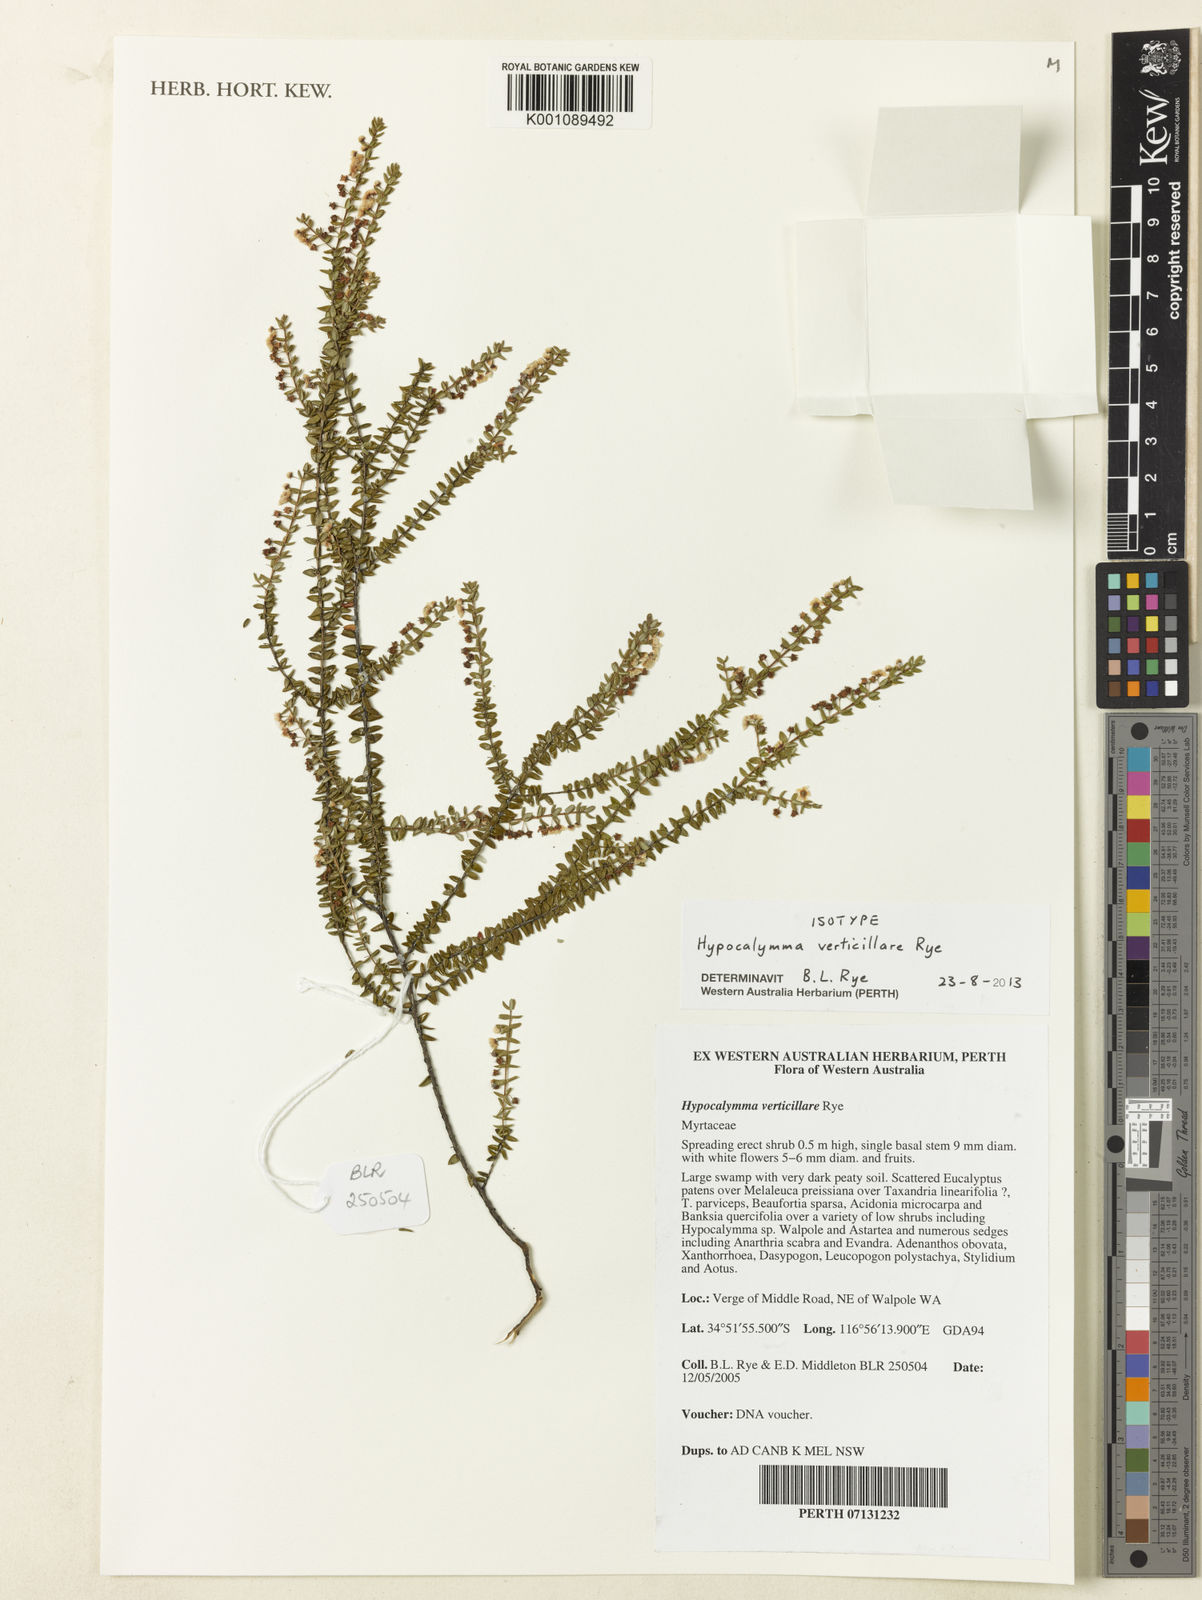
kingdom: Plantae
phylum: Tracheophyta
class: Magnoliopsida
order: Myrtales
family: Myrtaceae
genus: Hypocalymma
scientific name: Hypocalymma verticillare
